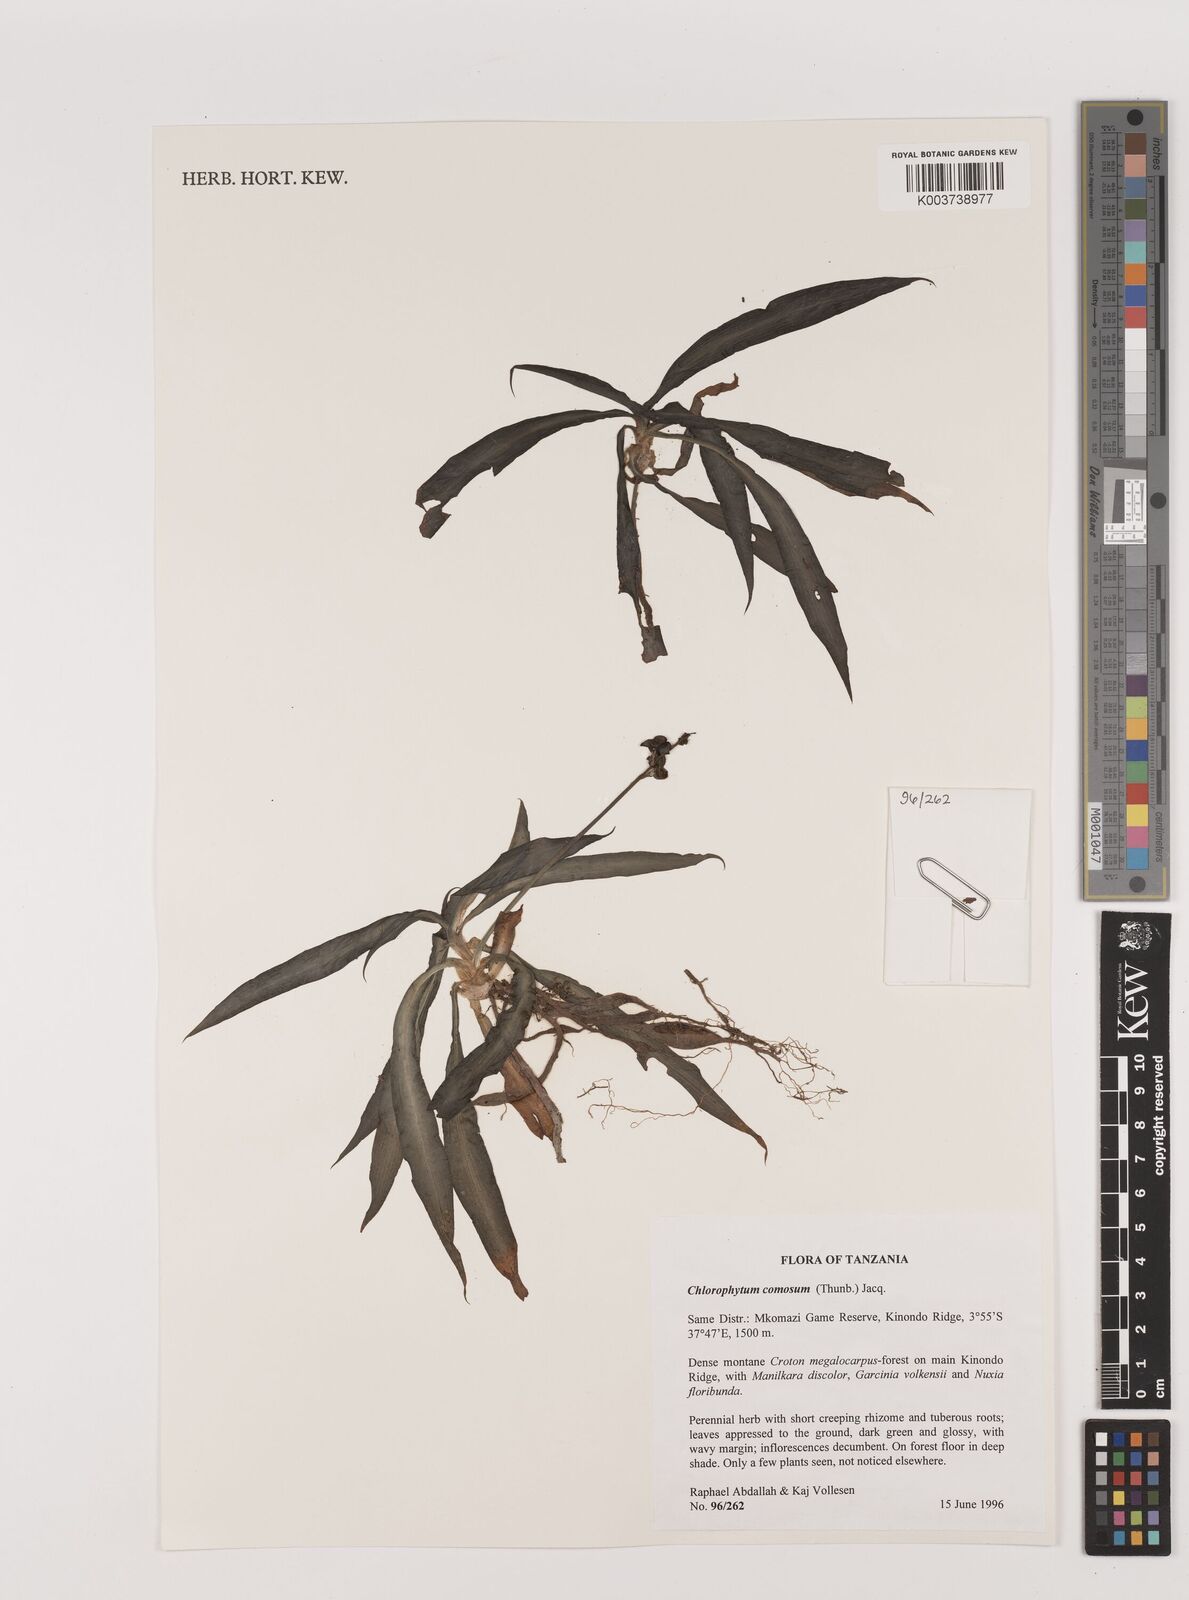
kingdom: Plantae
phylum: Tracheophyta
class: Liliopsida
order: Asparagales
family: Asparagaceae
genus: Chlorophytum
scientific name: Chlorophytum comosum
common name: Spider plant
